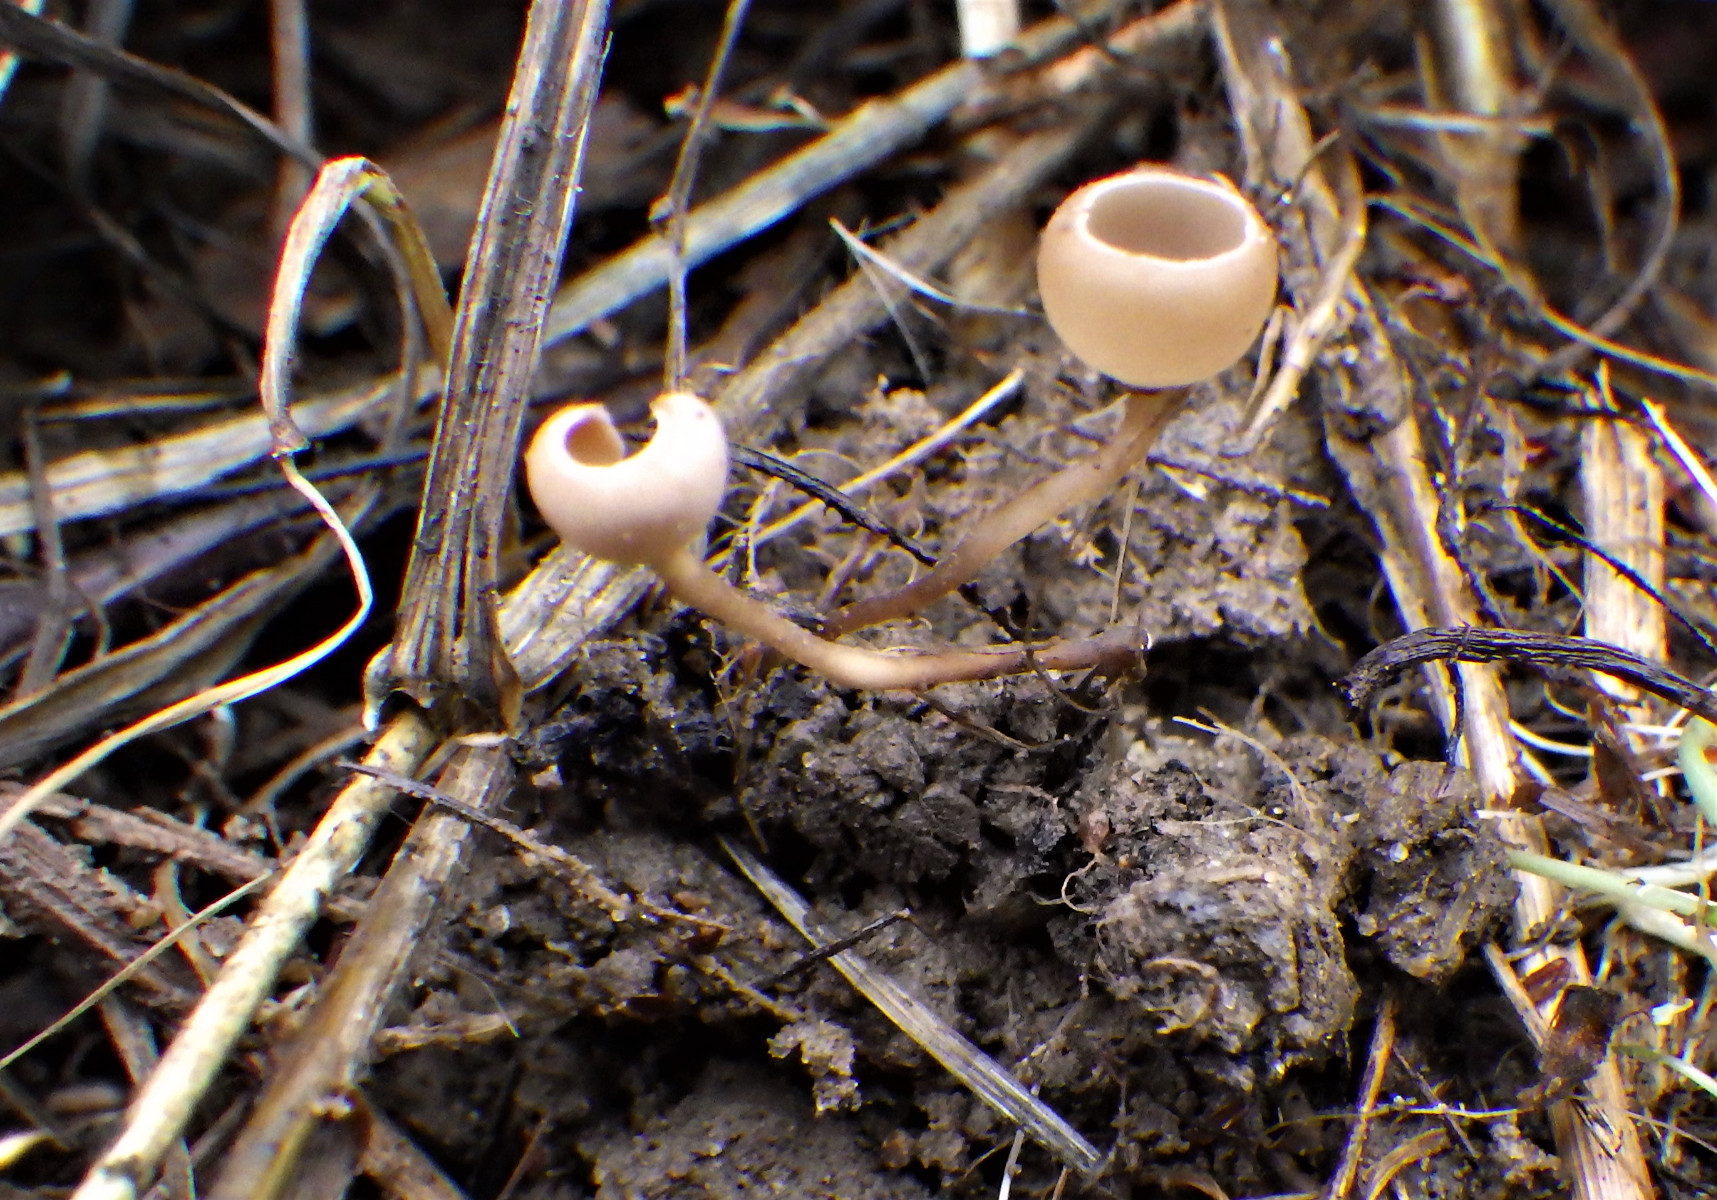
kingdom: Fungi
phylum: Ascomycota
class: Leotiomycetes
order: Helotiales
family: Sclerotiniaceae
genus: Ciboria
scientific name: Ciboria amentacea
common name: ellerakle-knoldskive
